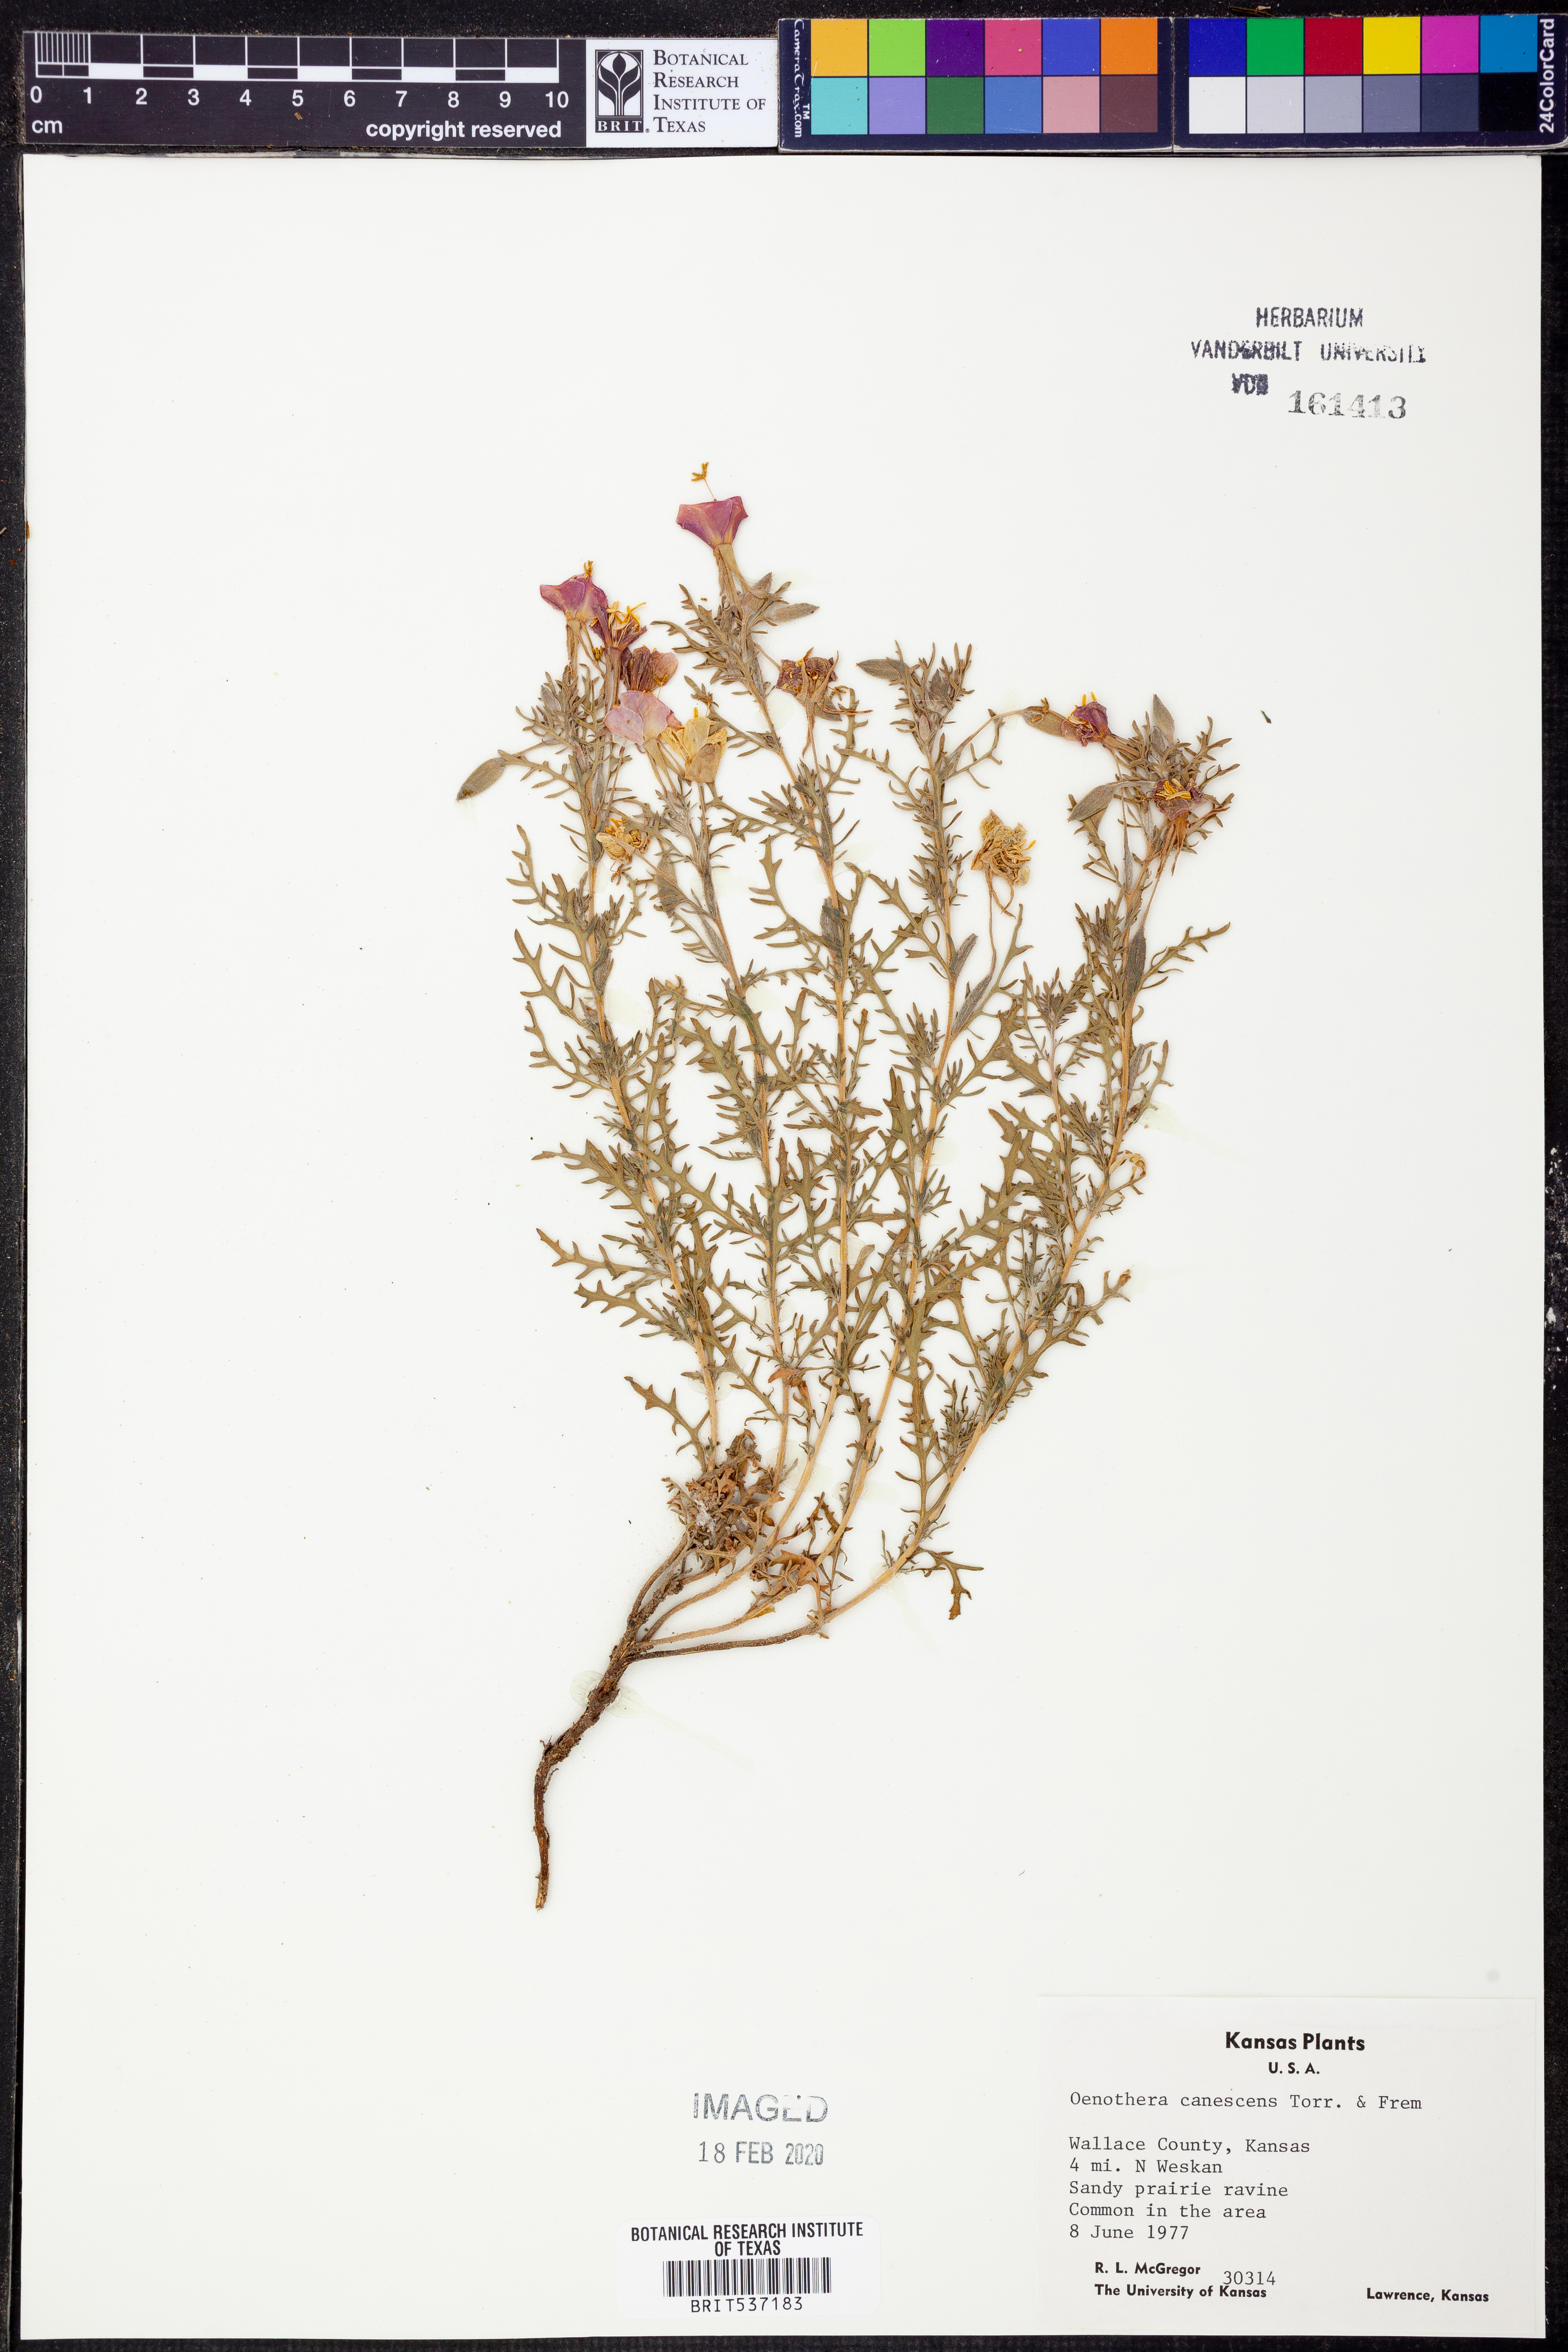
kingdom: Plantae
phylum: Tracheophyta
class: Magnoliopsida
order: Myrtales
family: Onagraceae
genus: Oenothera
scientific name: Oenothera canescens
